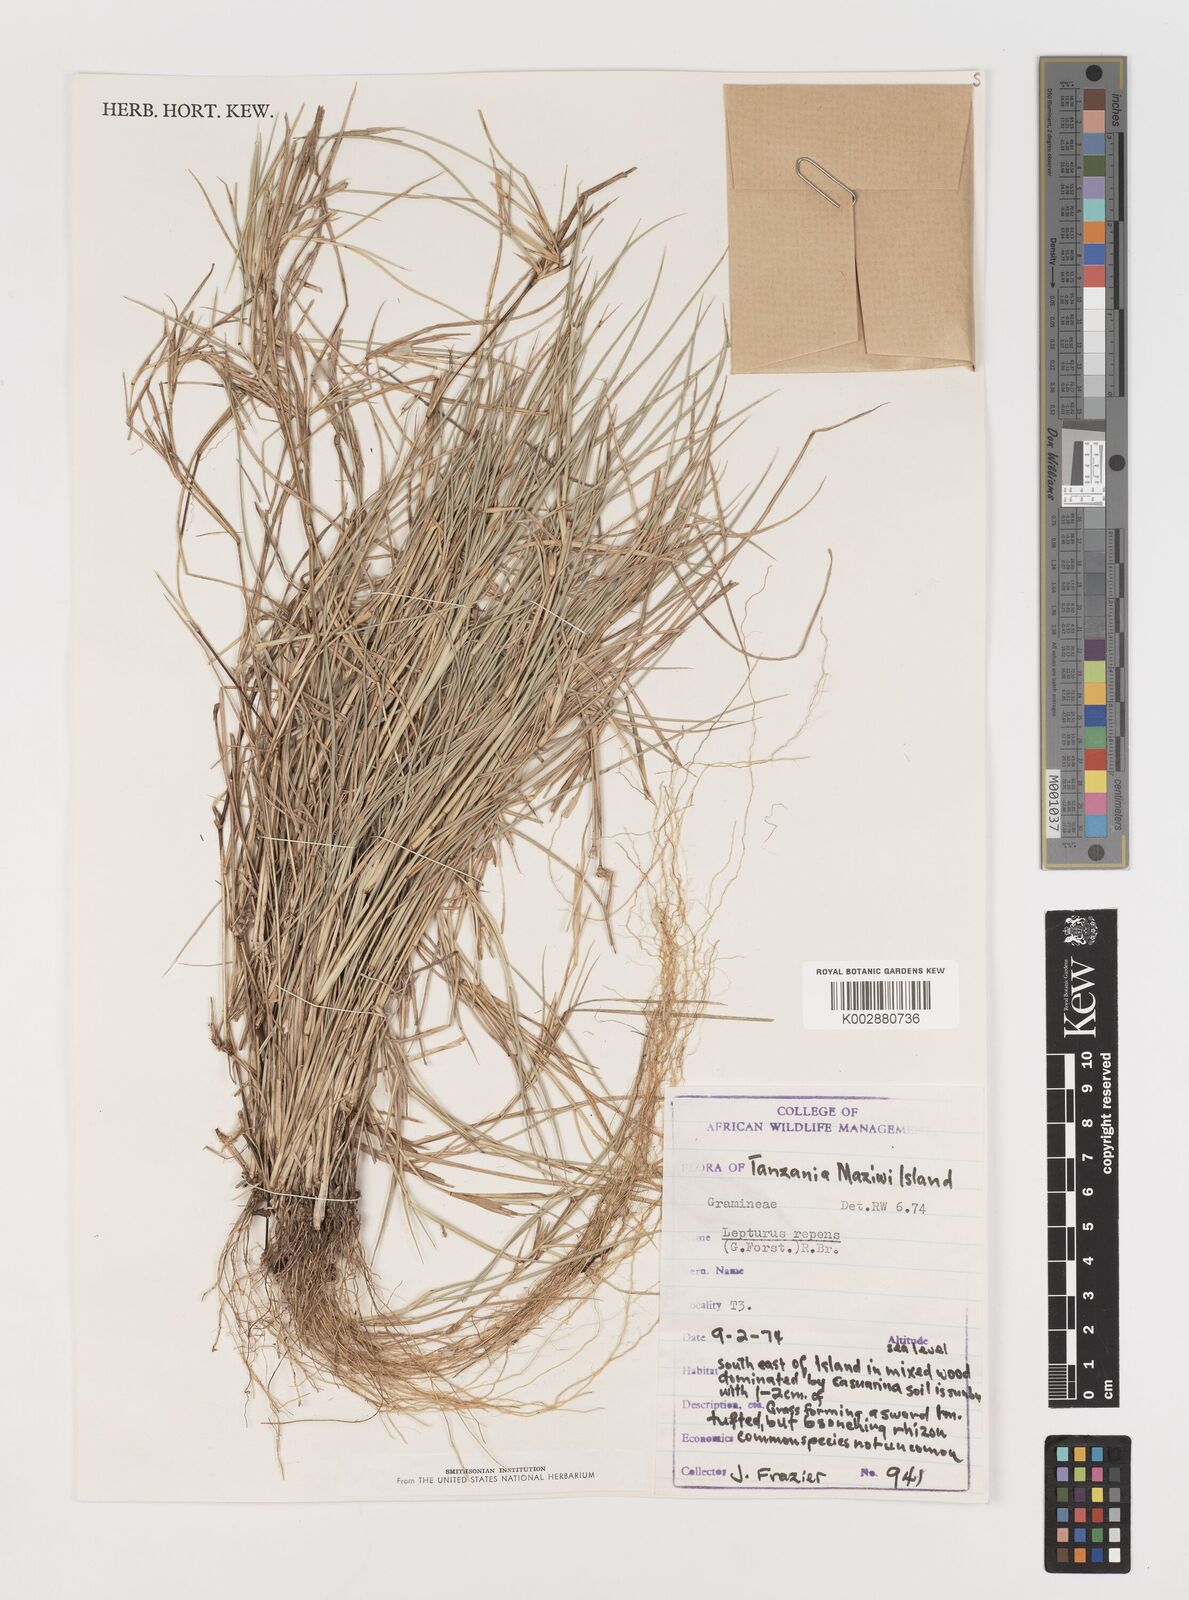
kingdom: Plantae
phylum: Tracheophyta
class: Liliopsida
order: Poales
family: Poaceae
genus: Lepturus
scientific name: Lepturus repens
